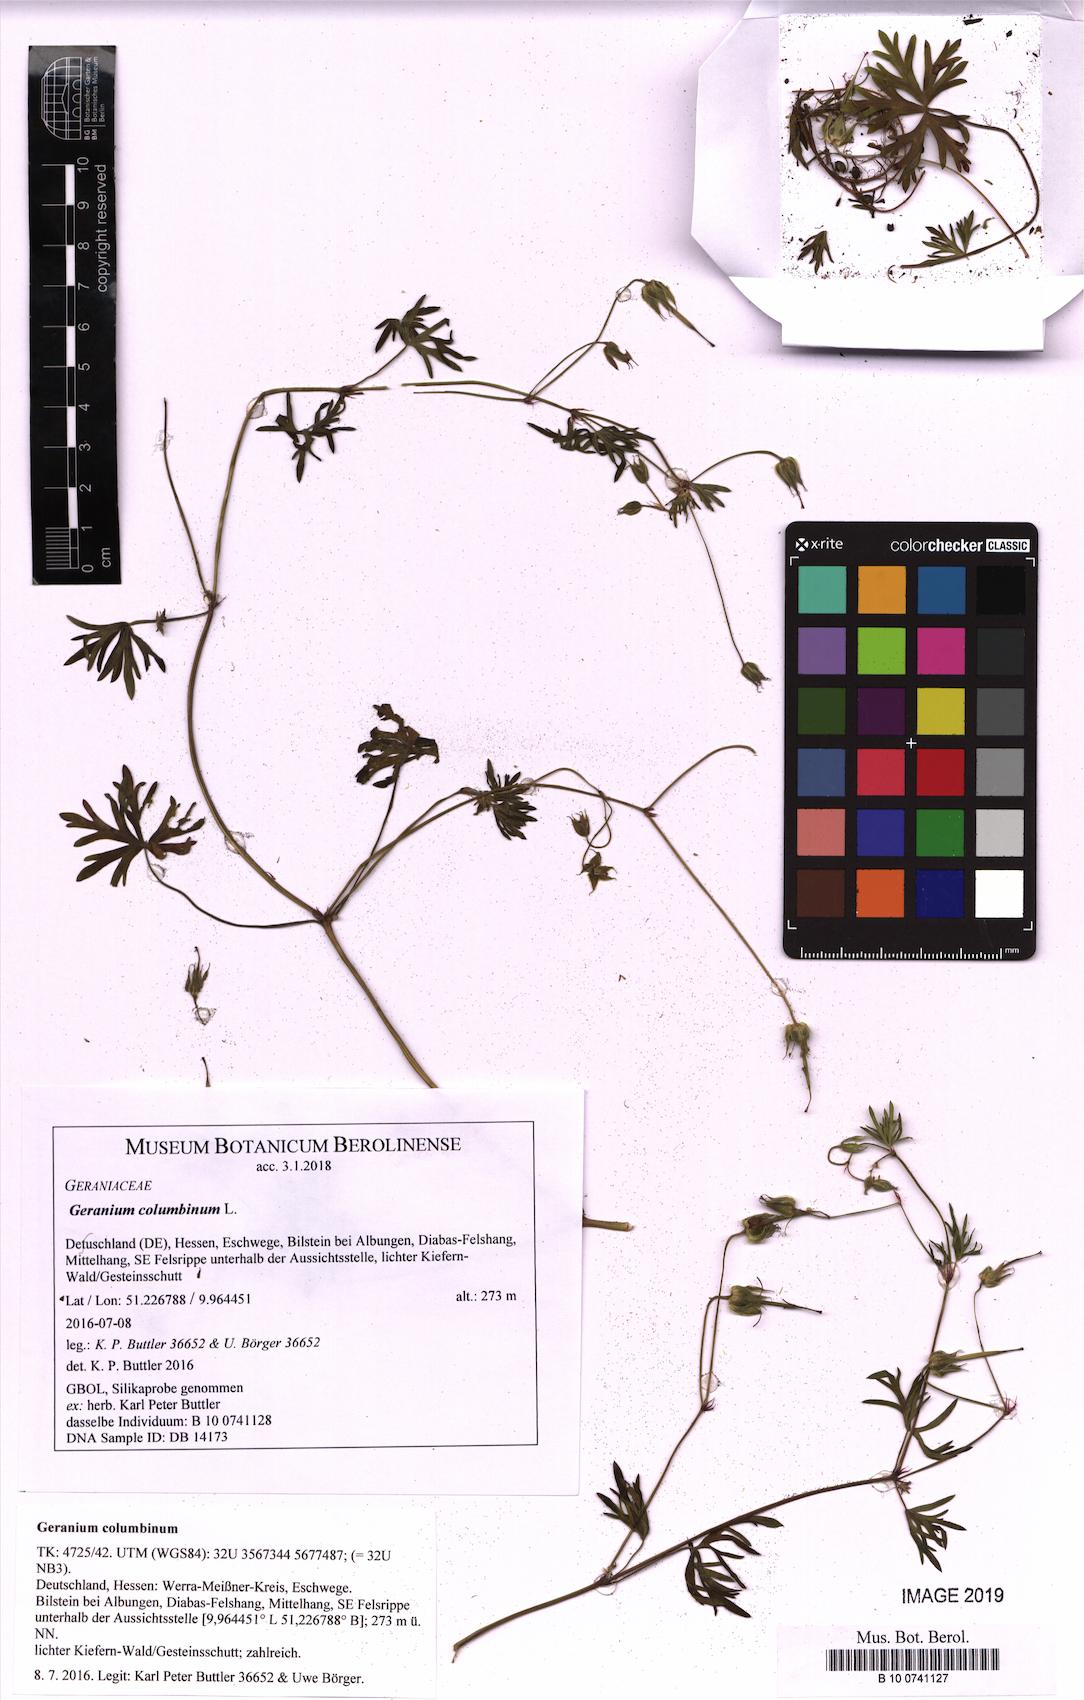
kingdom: Plantae
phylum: Tracheophyta
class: Magnoliopsida
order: Geraniales
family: Geraniaceae
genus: Geranium
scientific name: Geranium columbinum
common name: Long-stalked crane's-bill
